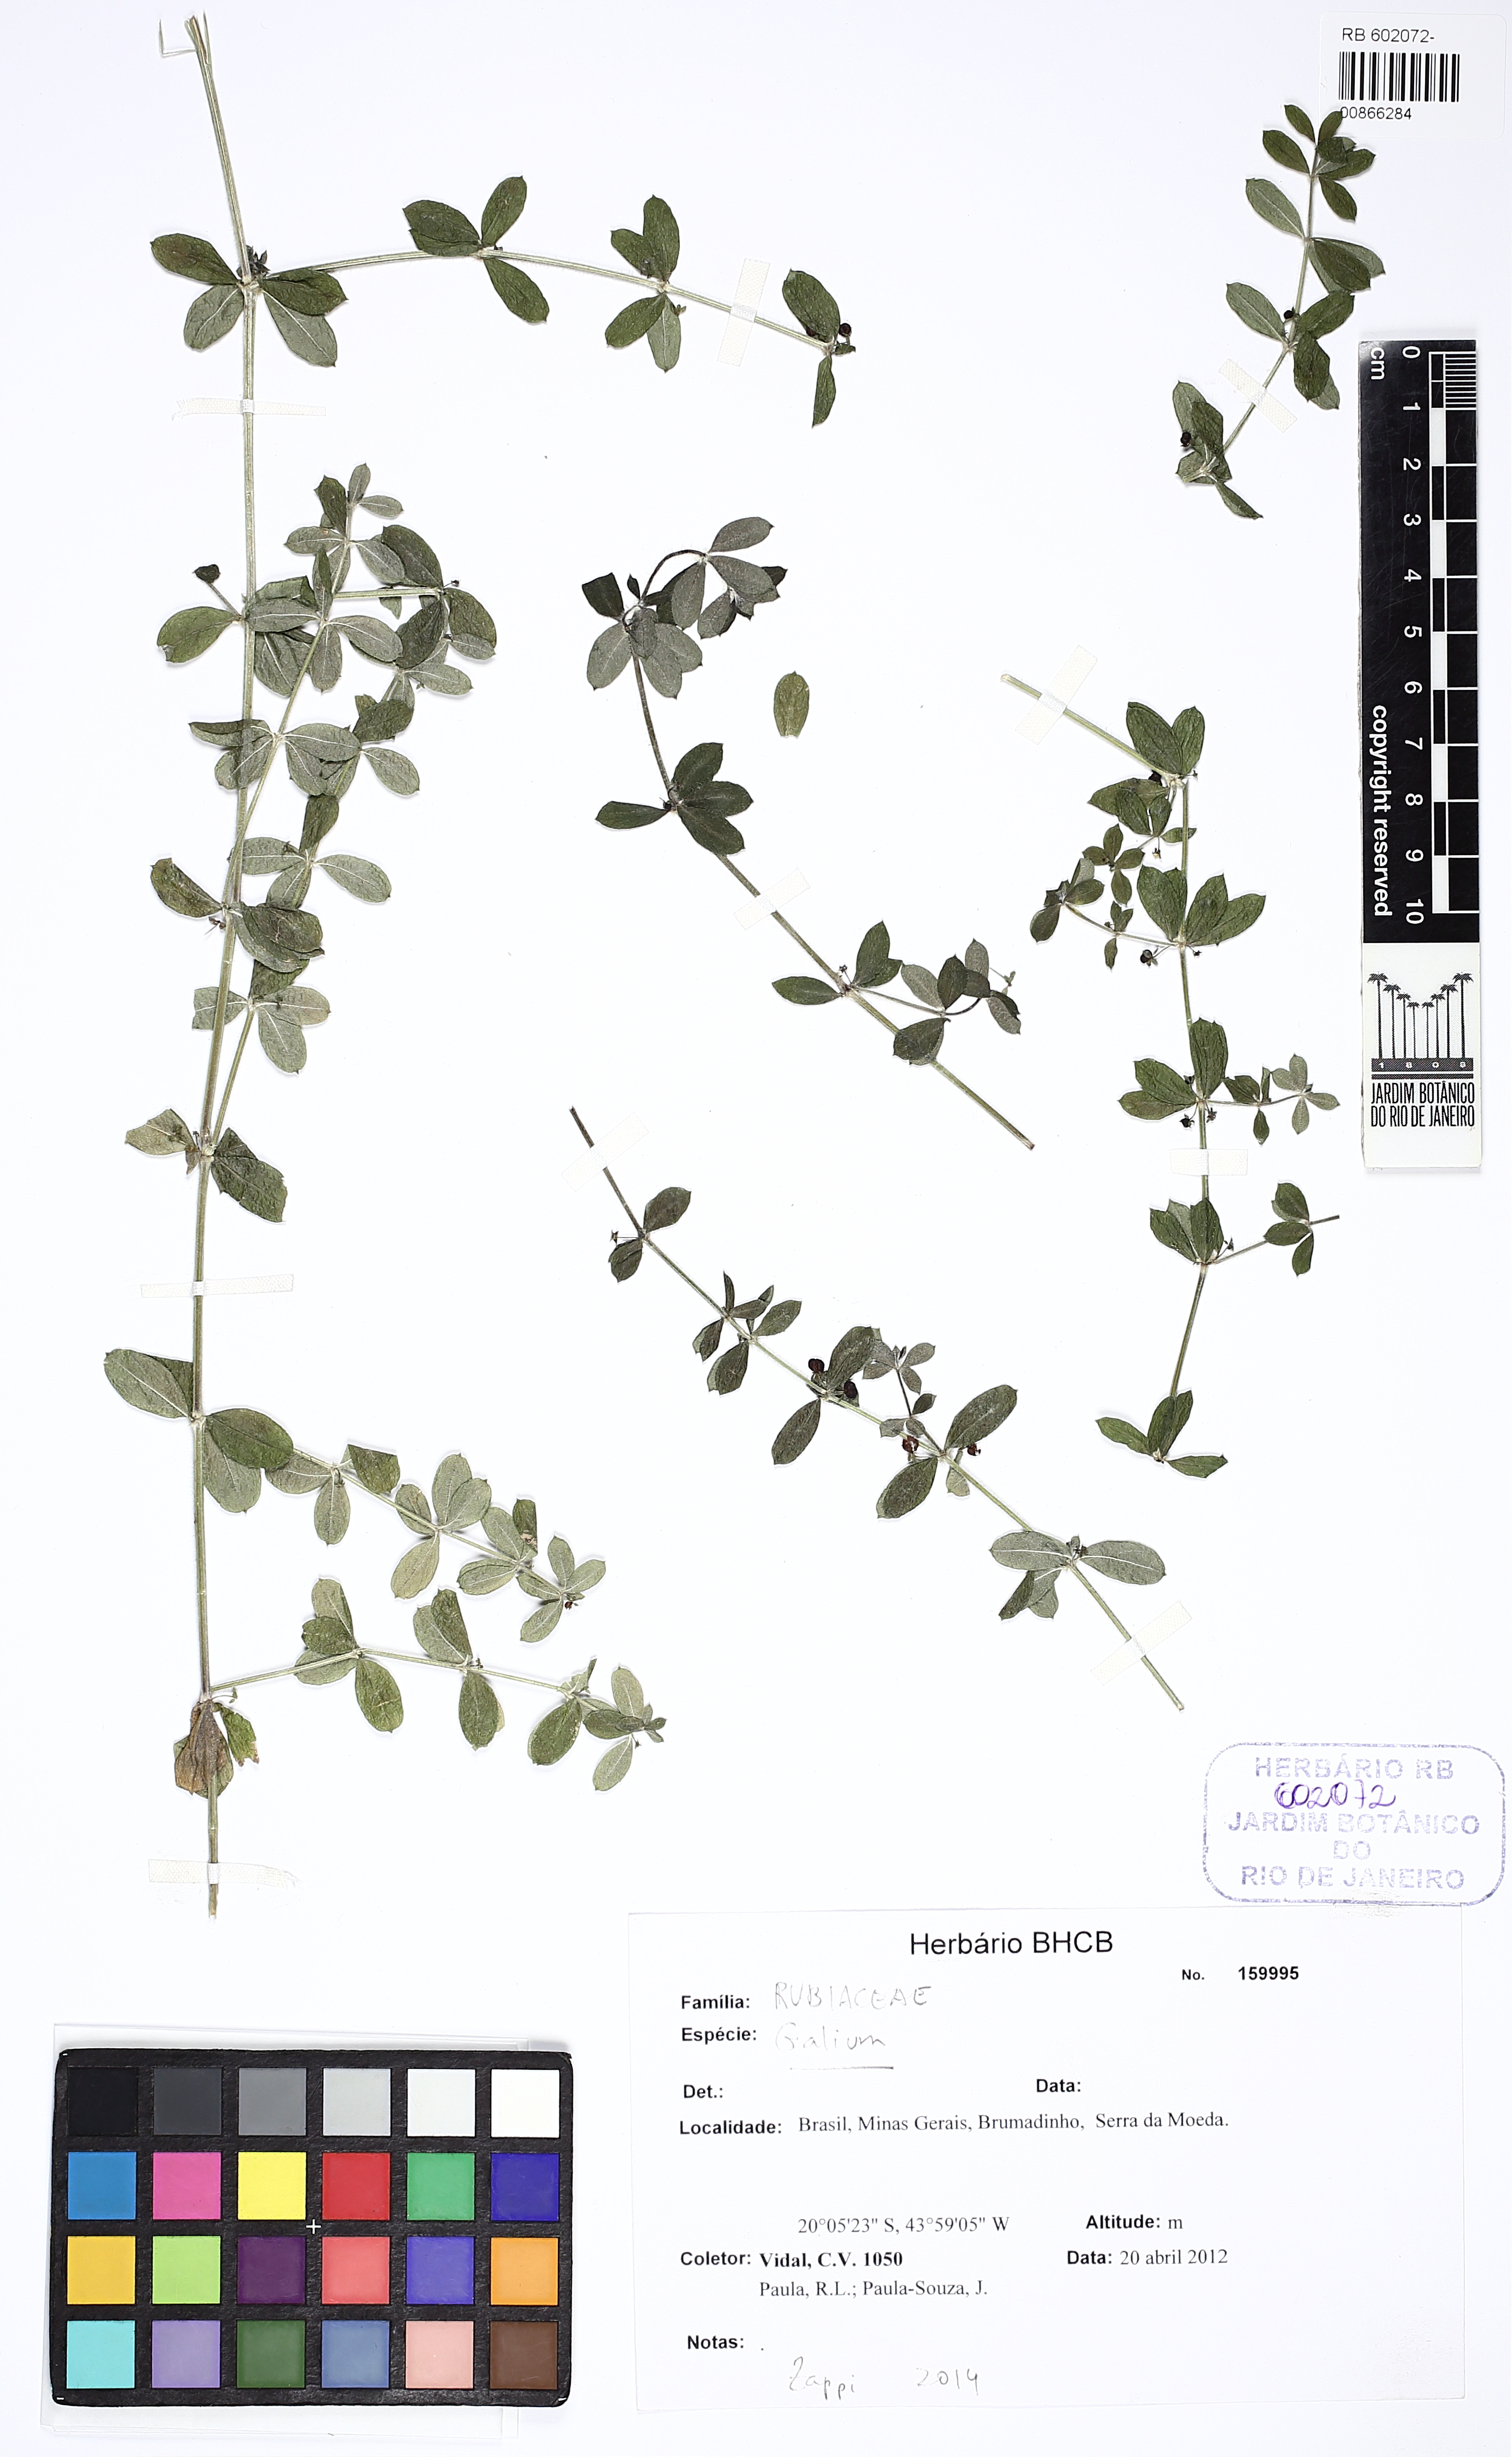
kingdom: Plantae
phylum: Tracheophyta
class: Magnoliopsida
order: Gentianales
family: Rubiaceae
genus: Galium
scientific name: Galium hypocarpium
